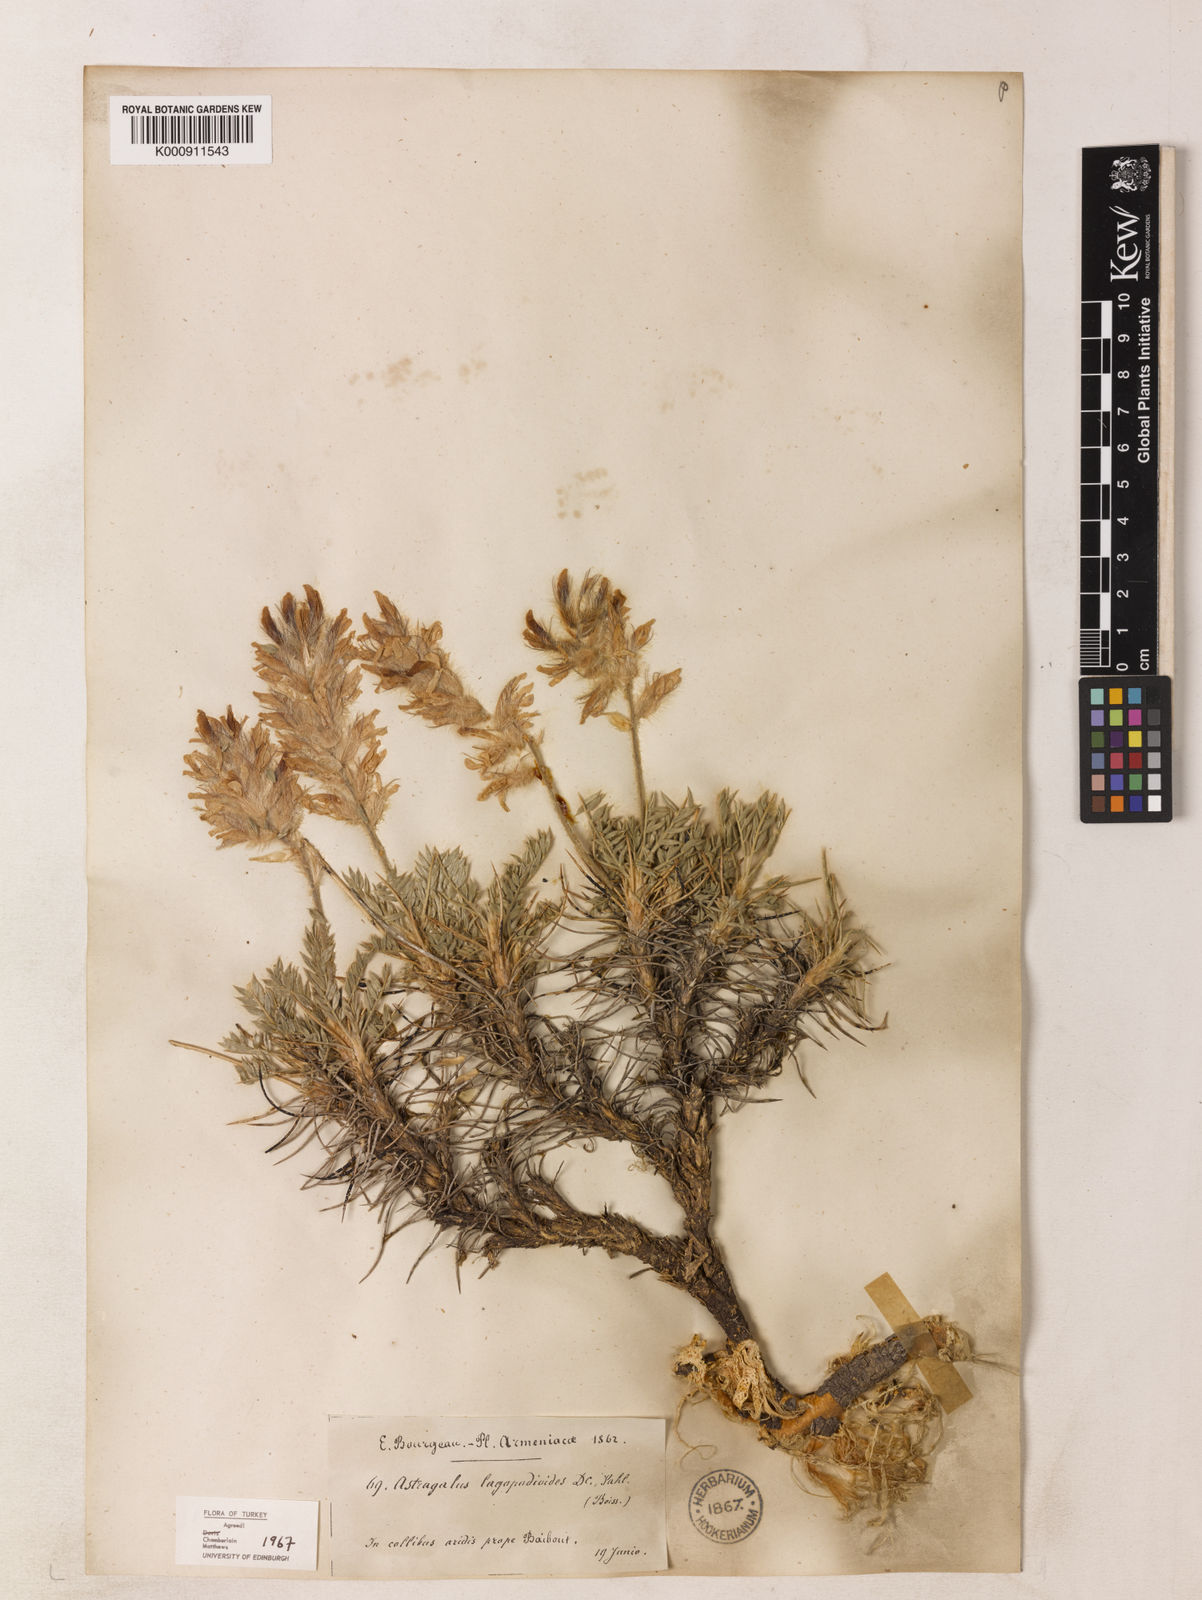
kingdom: Plantae
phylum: Tracheophyta
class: Magnoliopsida
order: Fabales
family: Fabaceae
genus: Astragalus
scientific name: Astragalus
